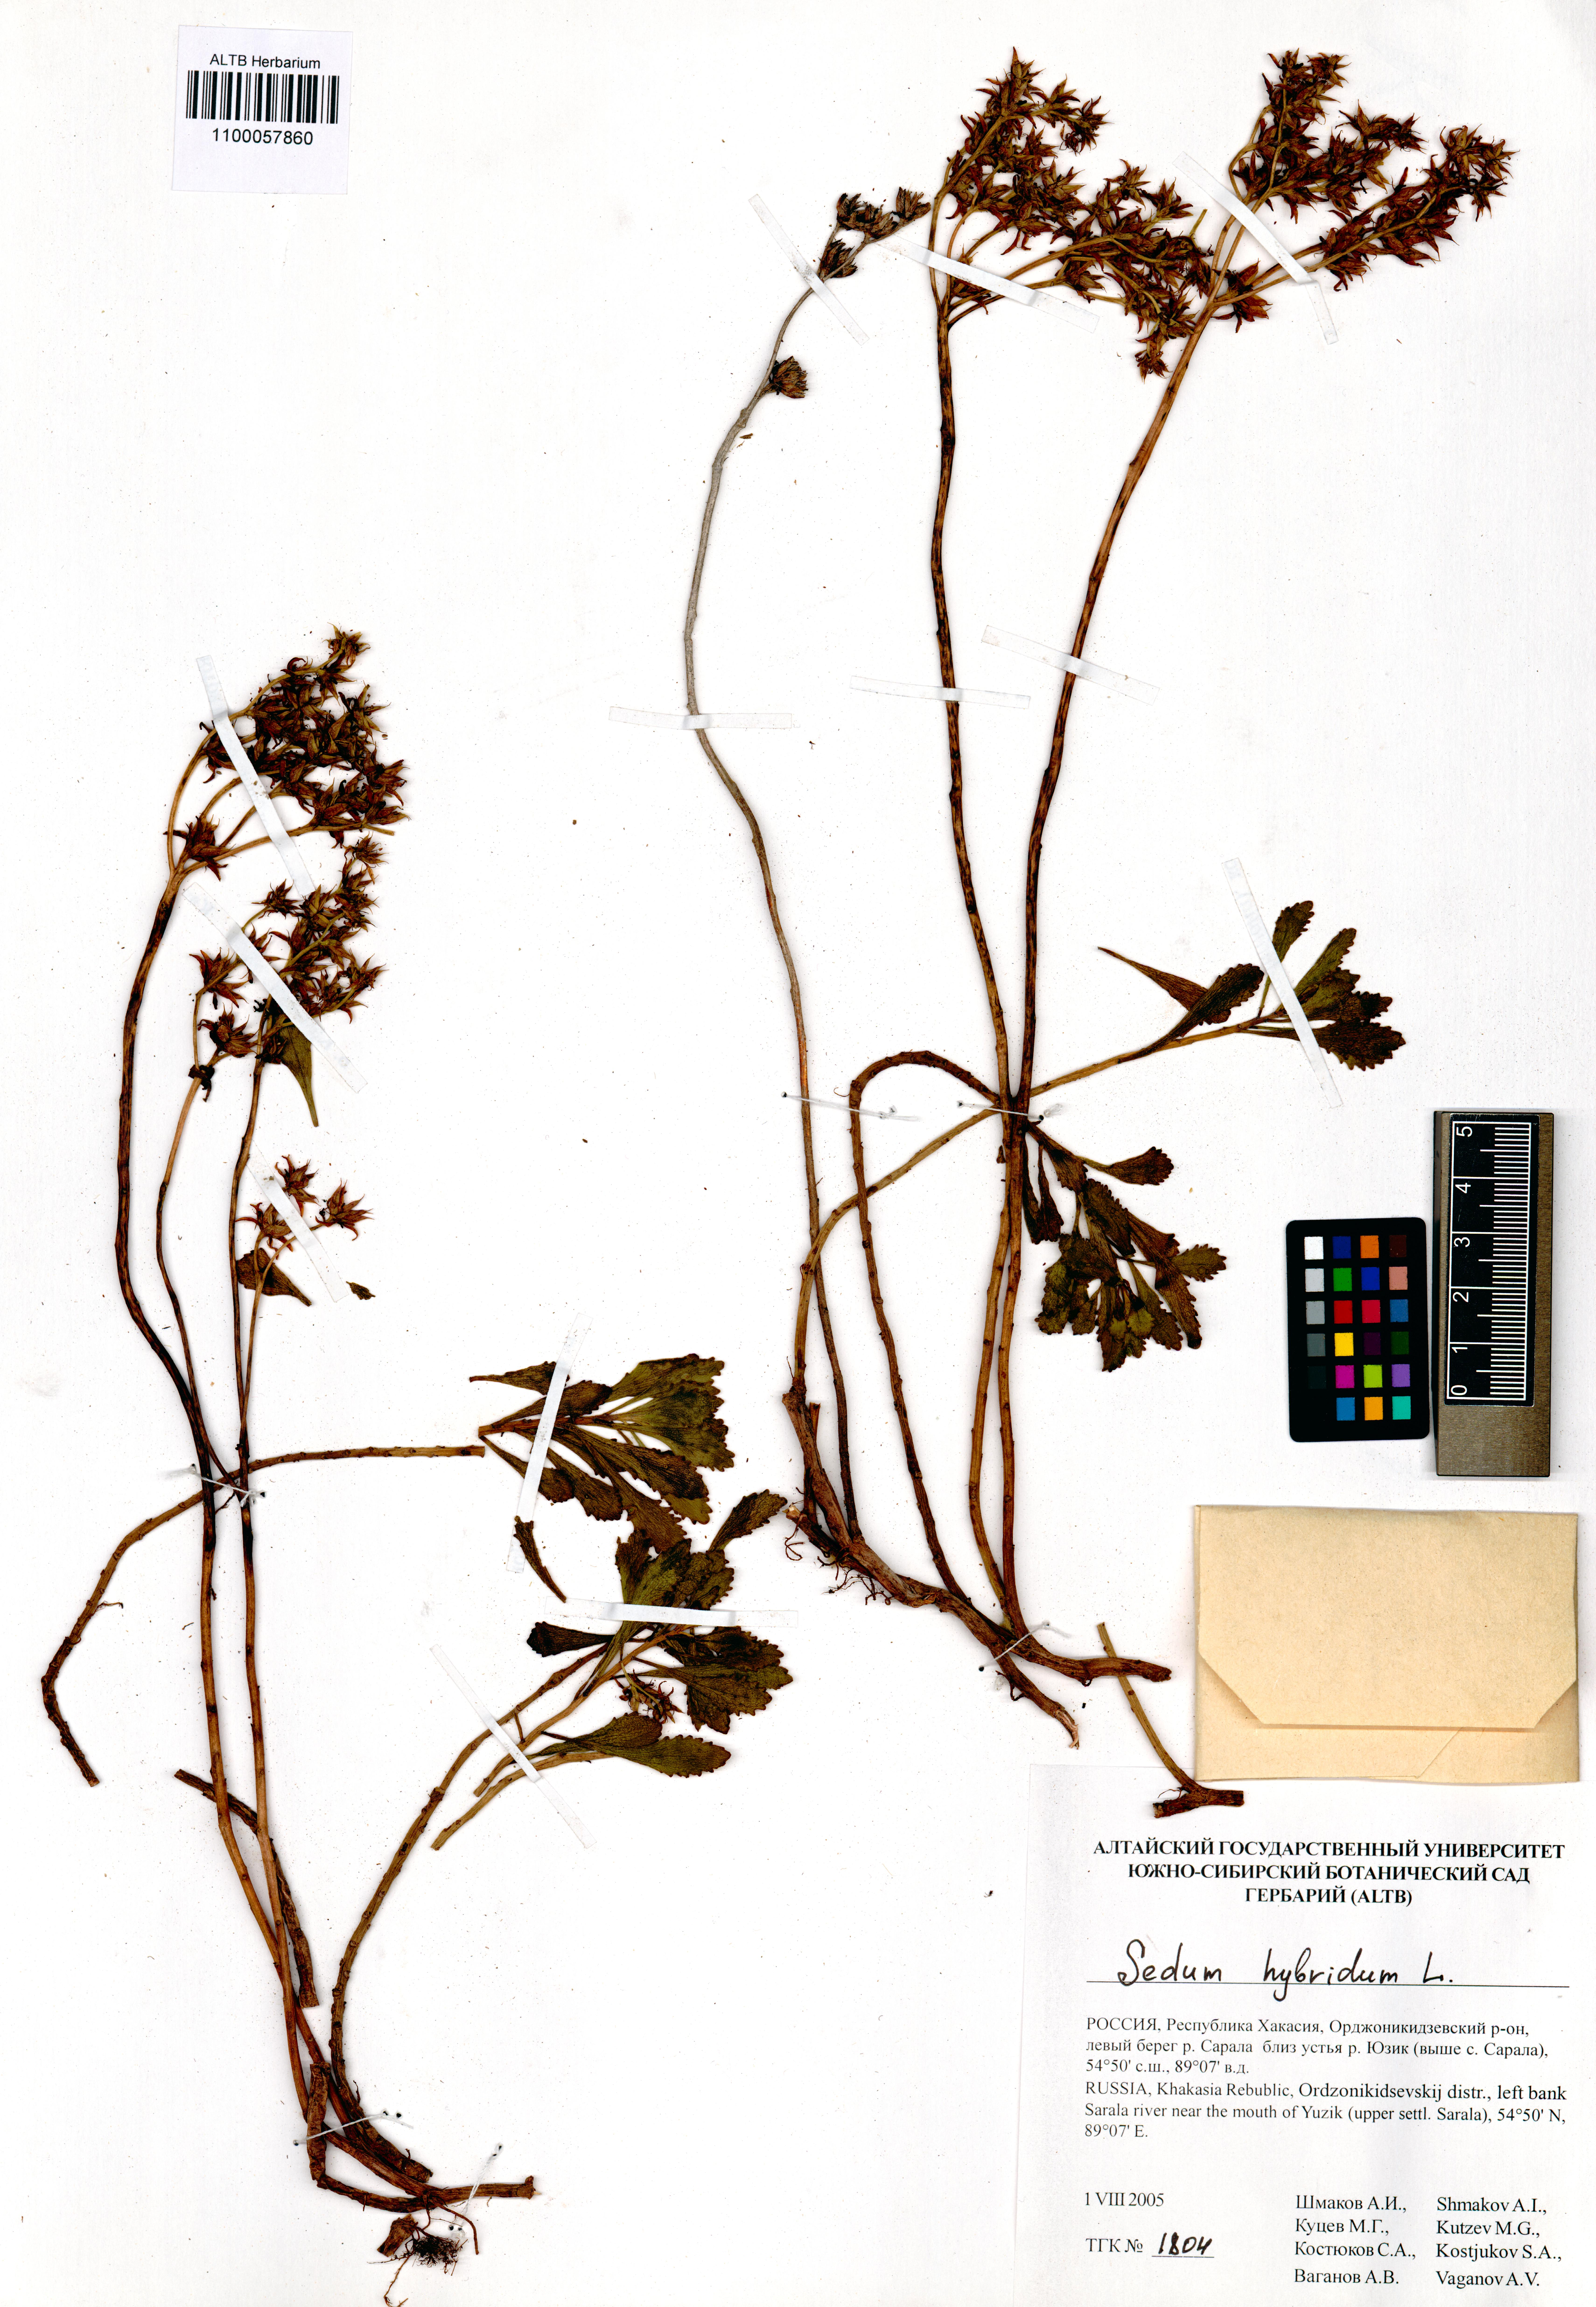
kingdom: Plantae
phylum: Tracheophyta
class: Magnoliopsida
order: Saxifragales
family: Crassulaceae
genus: Phedimus
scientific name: Phedimus hybridus
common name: Hybrid stonecrop
